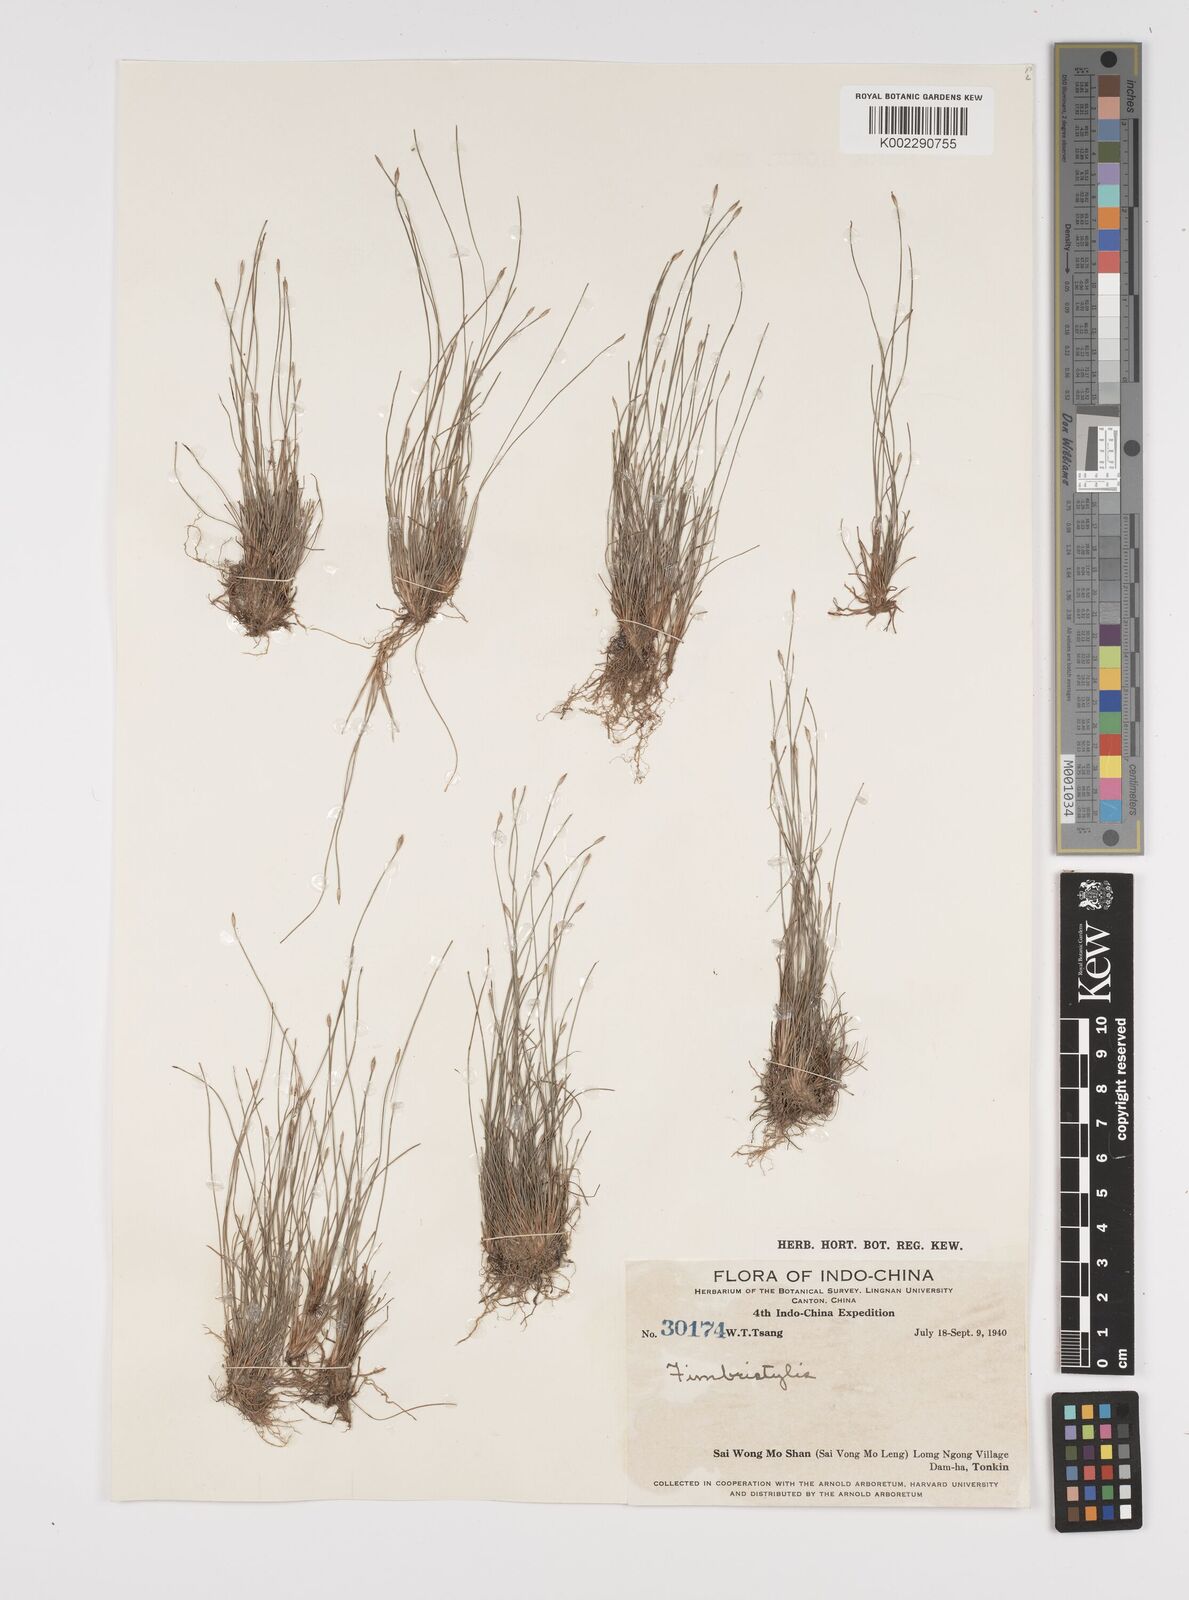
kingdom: Plantae
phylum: Tracheophyta
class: Liliopsida
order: Poales
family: Cyperaceae
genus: Fimbristylis
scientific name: Fimbristylis
